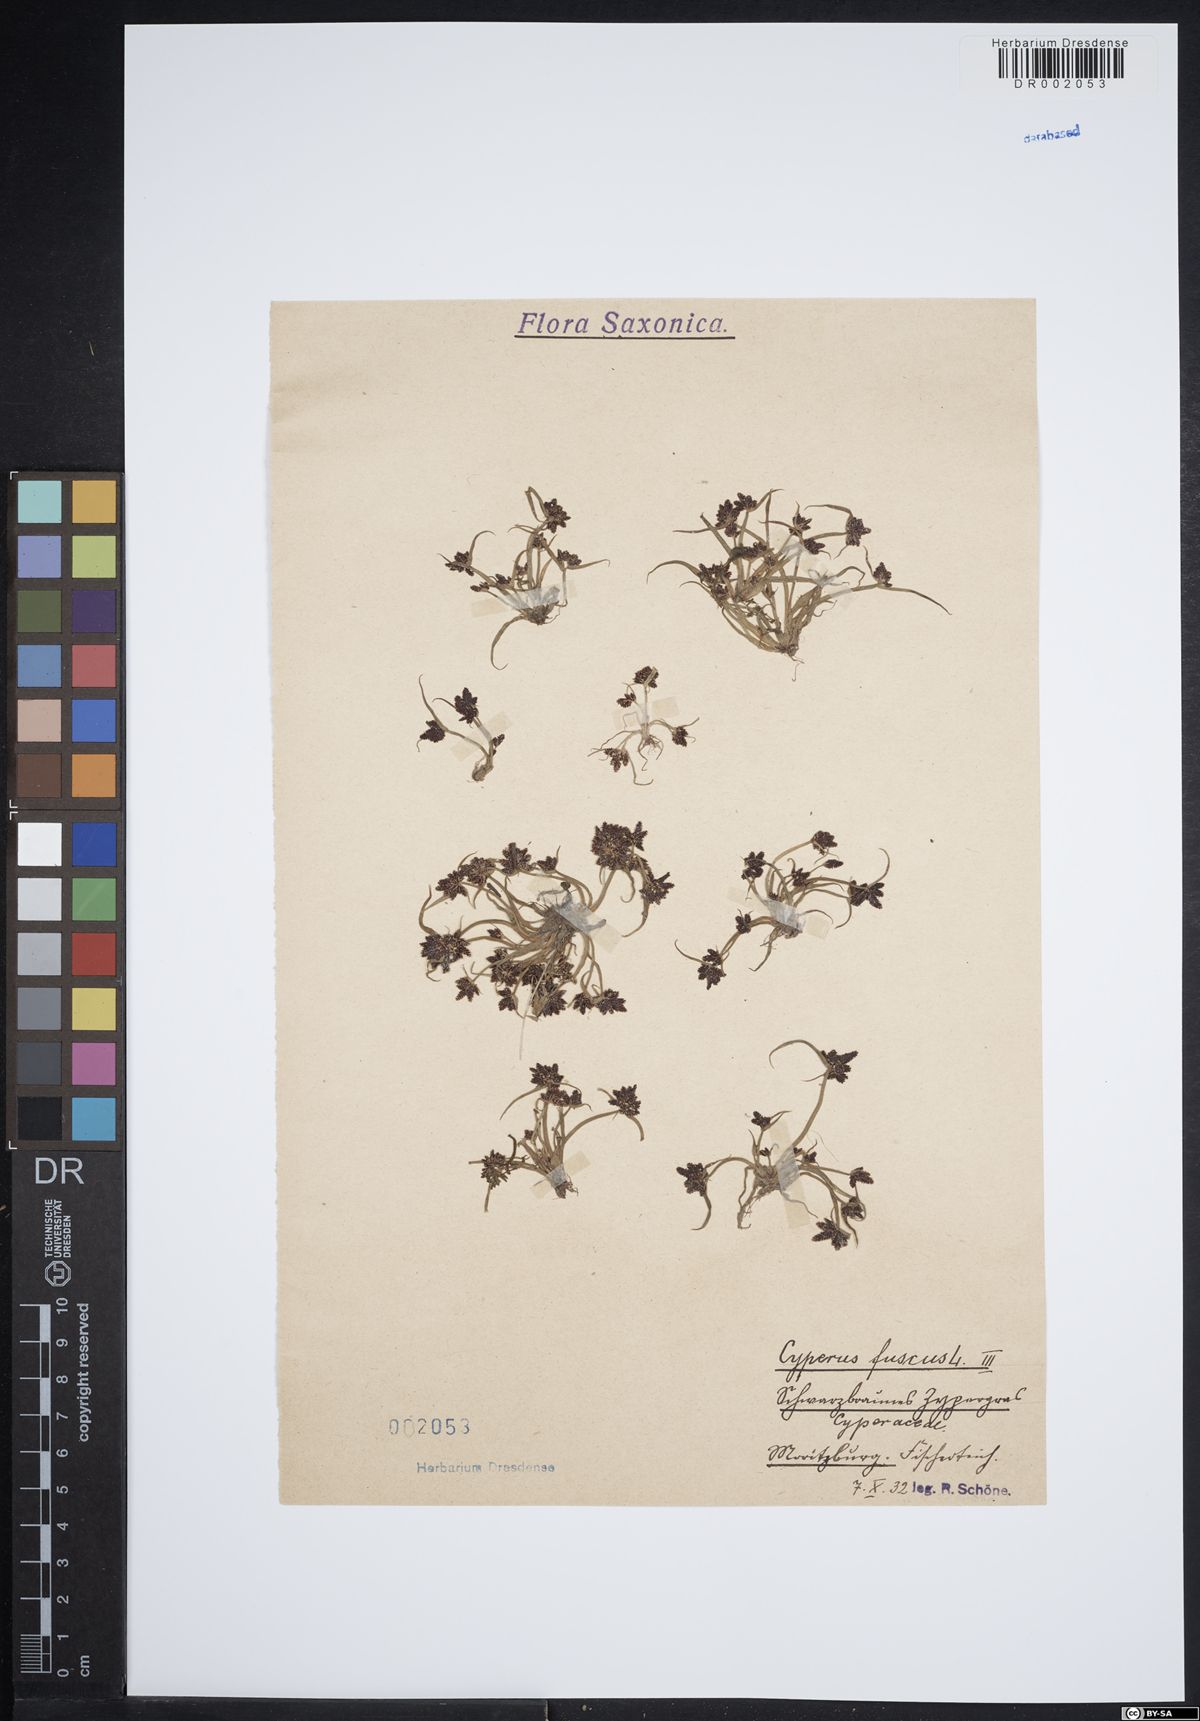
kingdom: Plantae
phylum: Tracheophyta
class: Liliopsida
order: Poales
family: Cyperaceae
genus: Cyperus
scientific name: Cyperus fuscus
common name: Brown galingale
